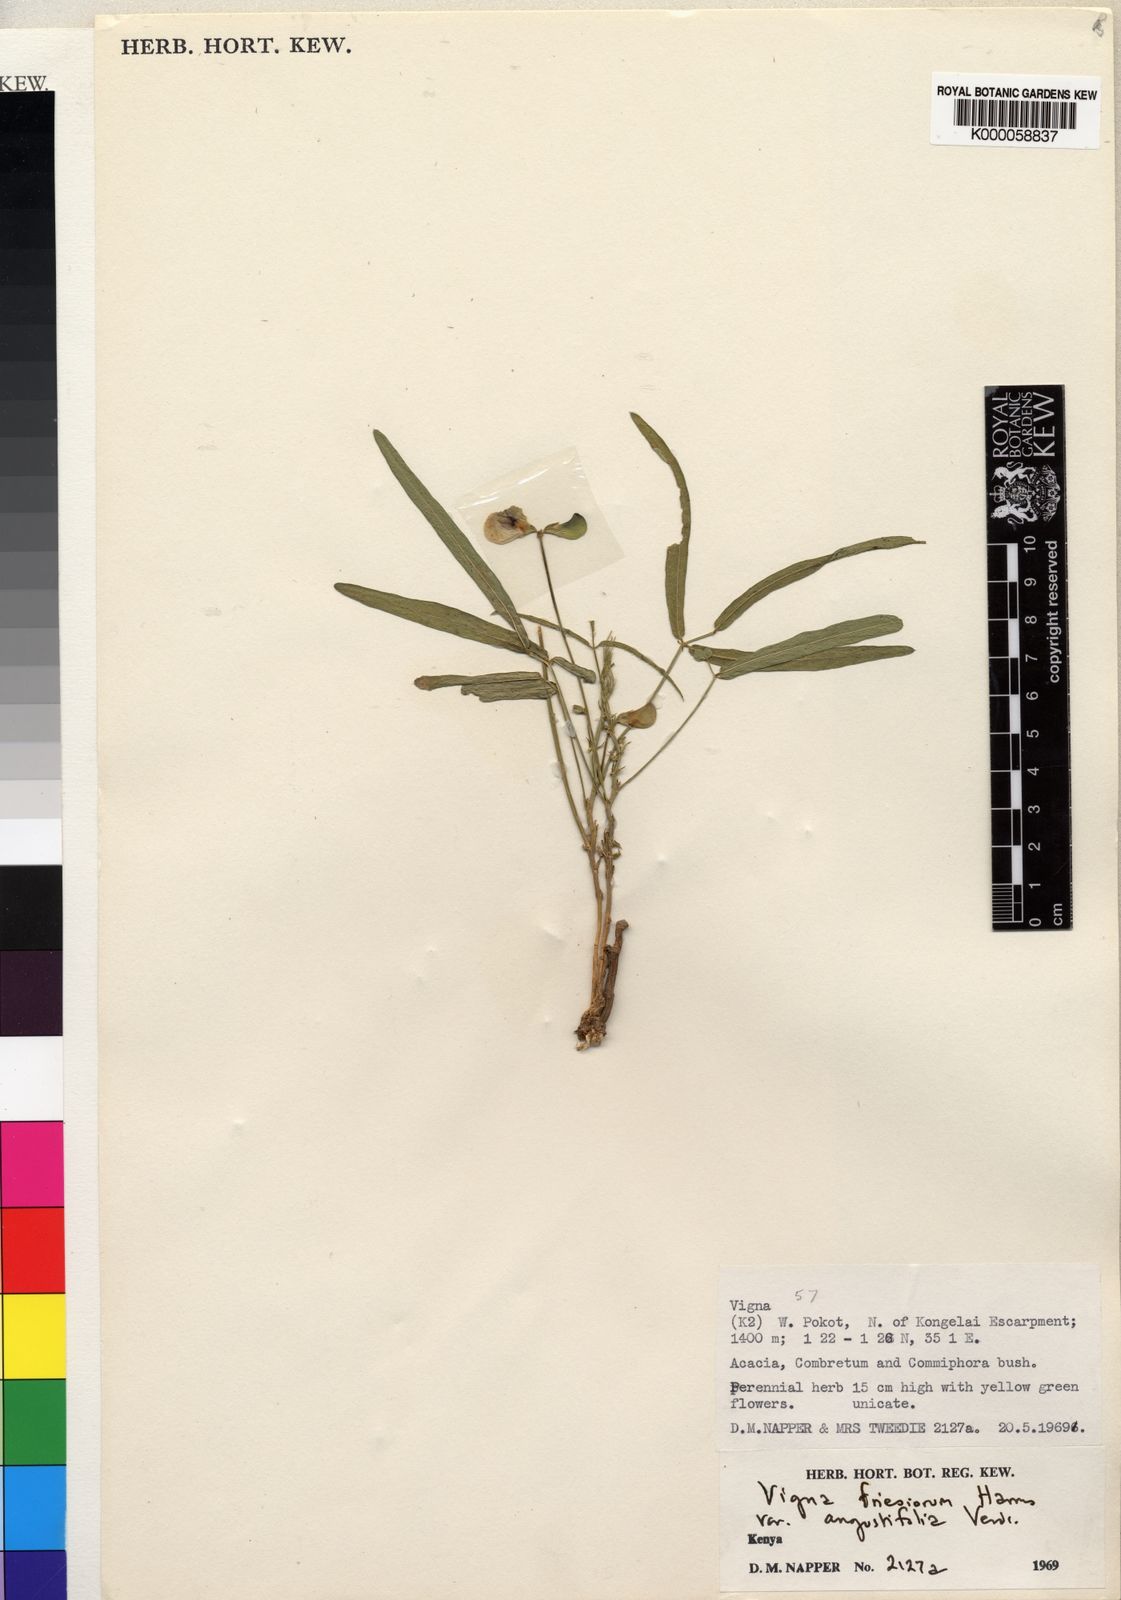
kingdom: Plantae
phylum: Tracheophyta
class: Magnoliopsida
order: Fabales
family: Fabaceae
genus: Vigna
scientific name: Vigna friesiorum
